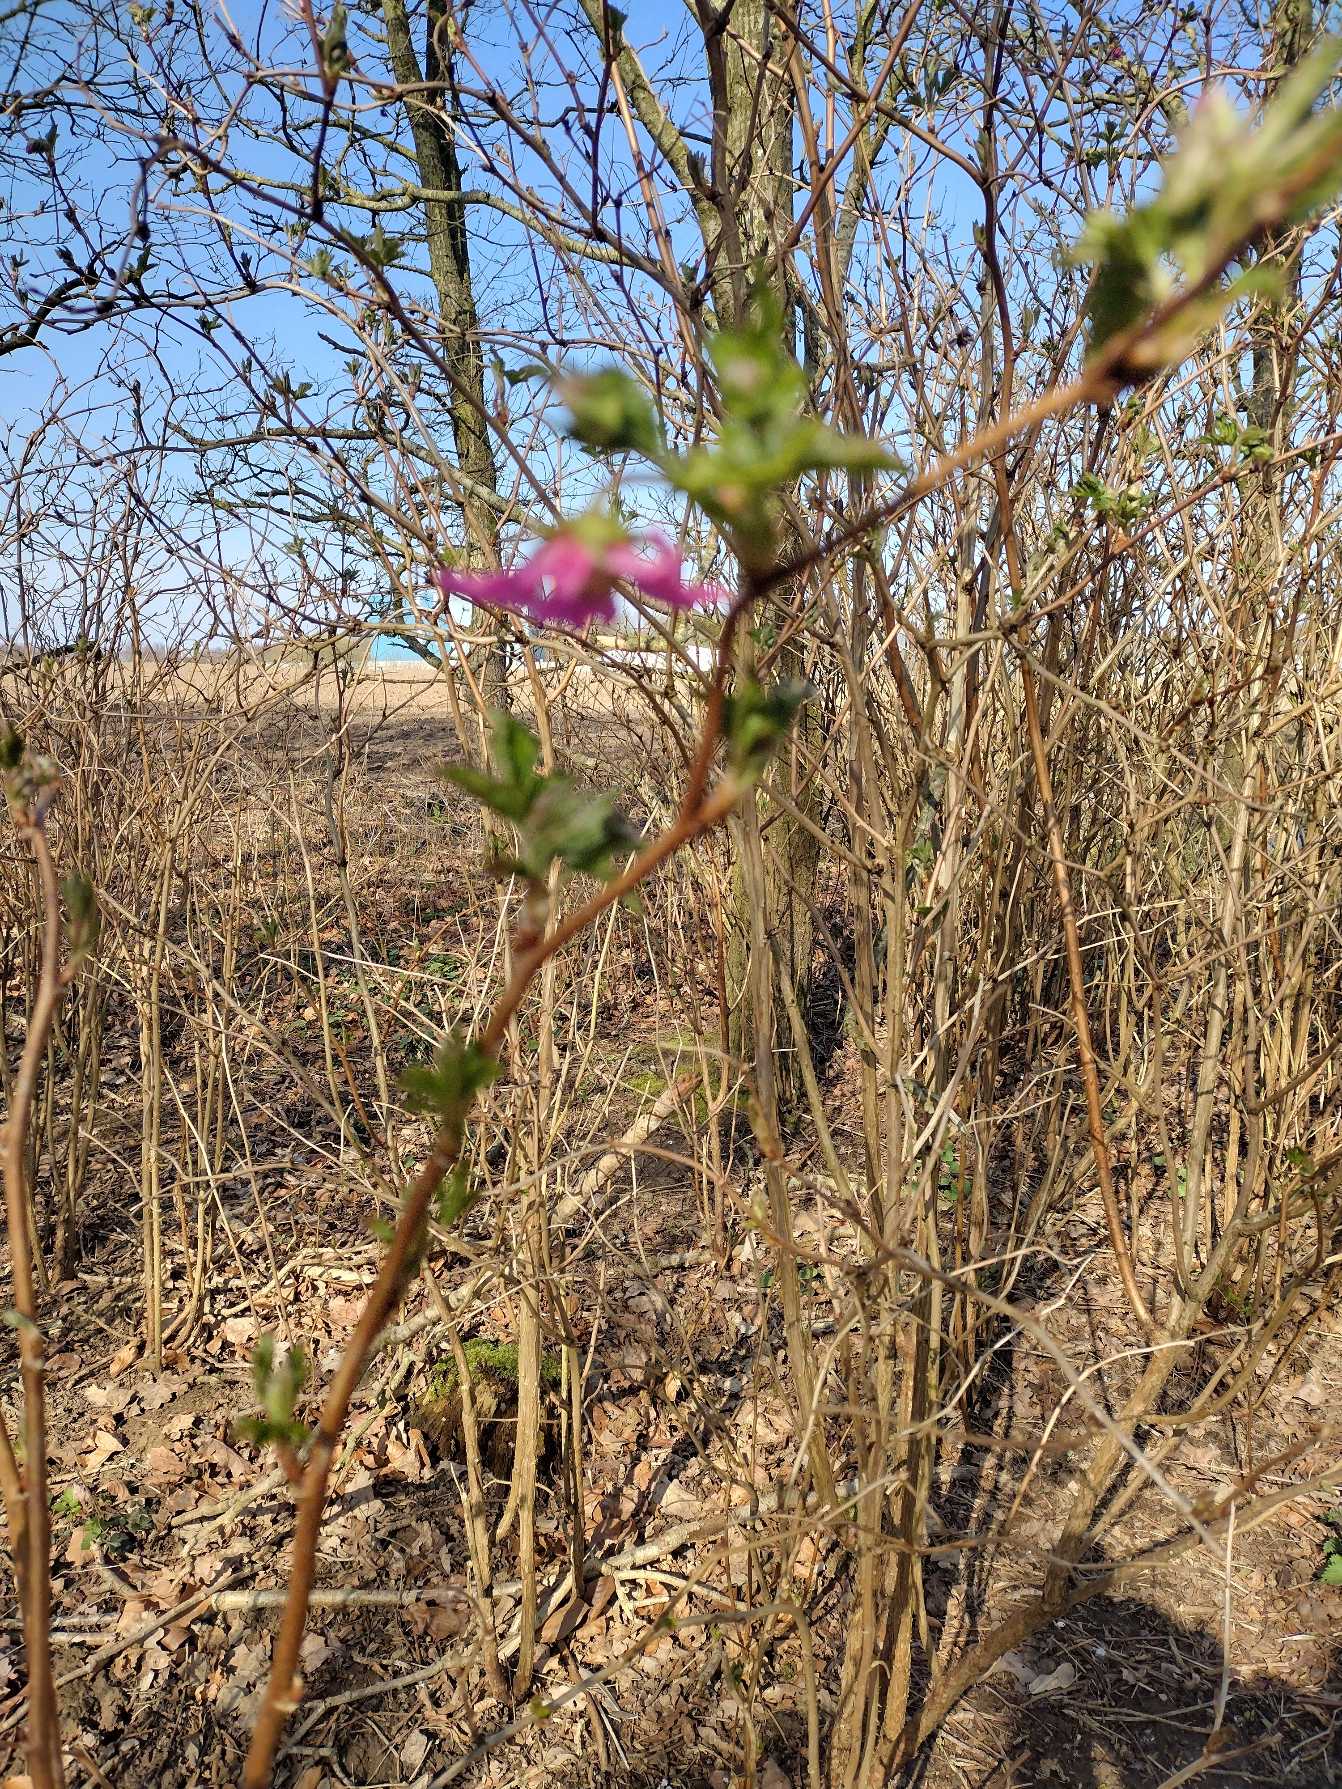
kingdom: Plantae
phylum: Tracheophyta
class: Magnoliopsida
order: Rosales
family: Rosaceae
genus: Rubus
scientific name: Rubus spectabilis
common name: Laksebær
